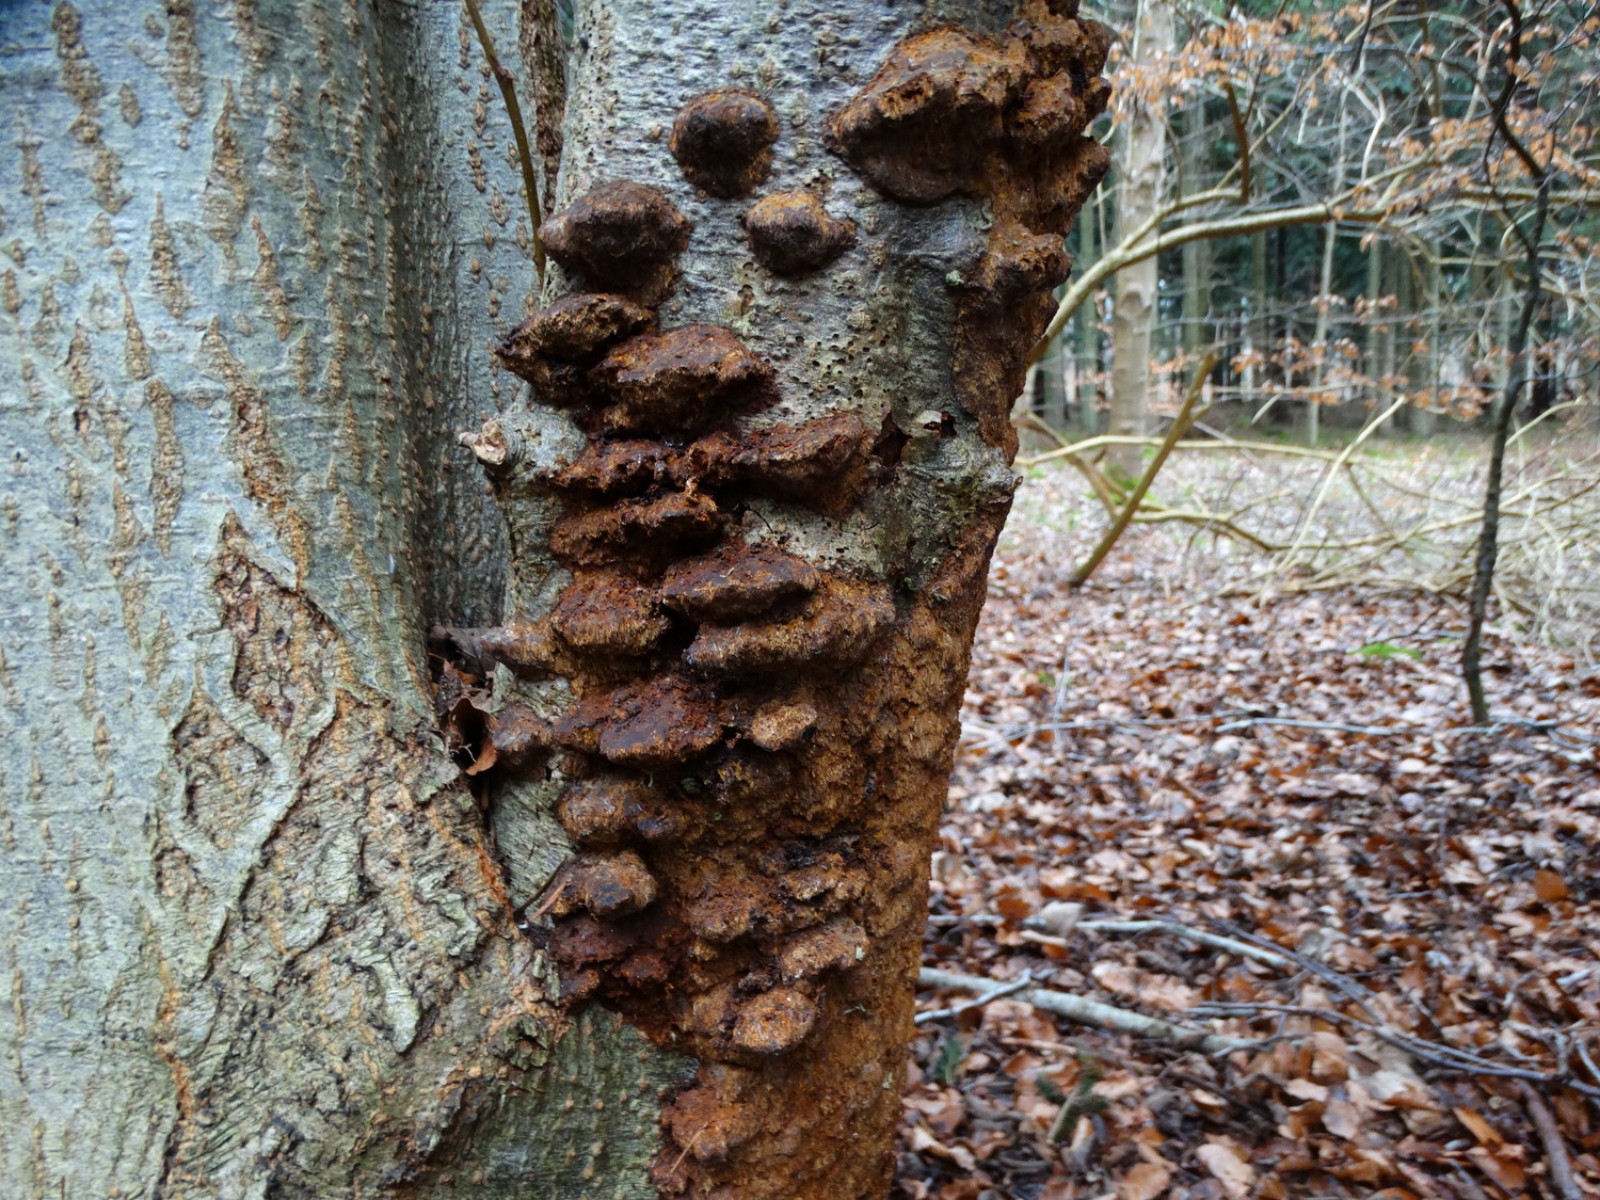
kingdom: Fungi
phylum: Basidiomycota
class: Agaricomycetes
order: Hymenochaetales
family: Hymenochaetaceae
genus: Xanthoporia
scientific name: Xanthoporia radiata
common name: elle-spejlporesvamp
